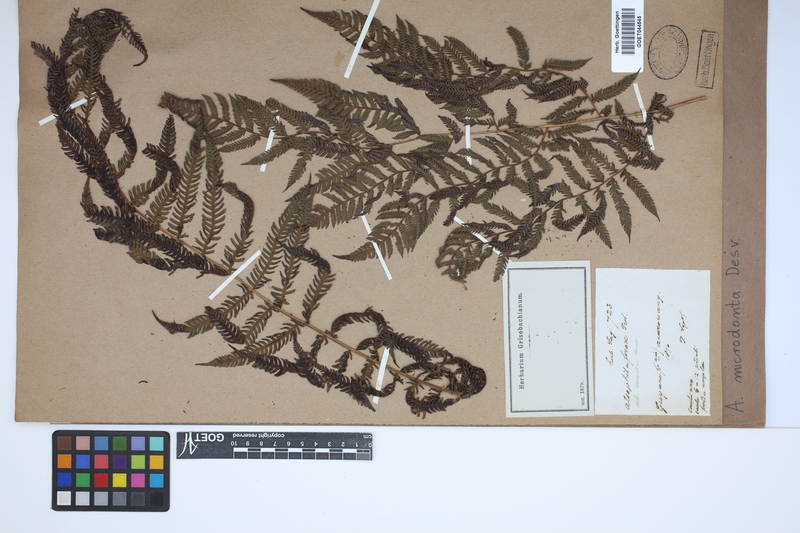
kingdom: Plantae
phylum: Tracheophyta
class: Polypodiopsida
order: Cyatheales
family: Cyatheaceae
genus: Cyathea
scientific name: Cyathea microdonta
